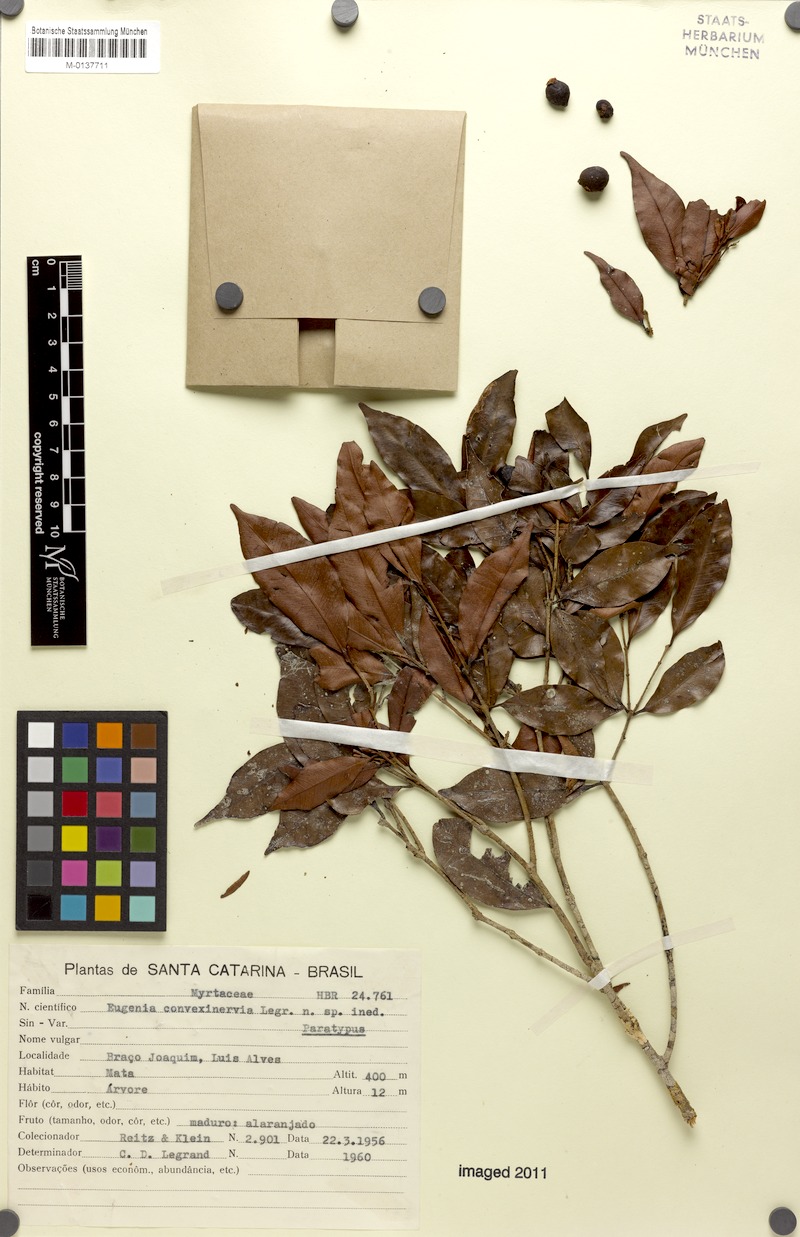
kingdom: Plantae
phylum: Tracheophyta
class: Magnoliopsida
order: Myrtales
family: Myrtaceae
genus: Eugenia
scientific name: Eugenia convexinervia
